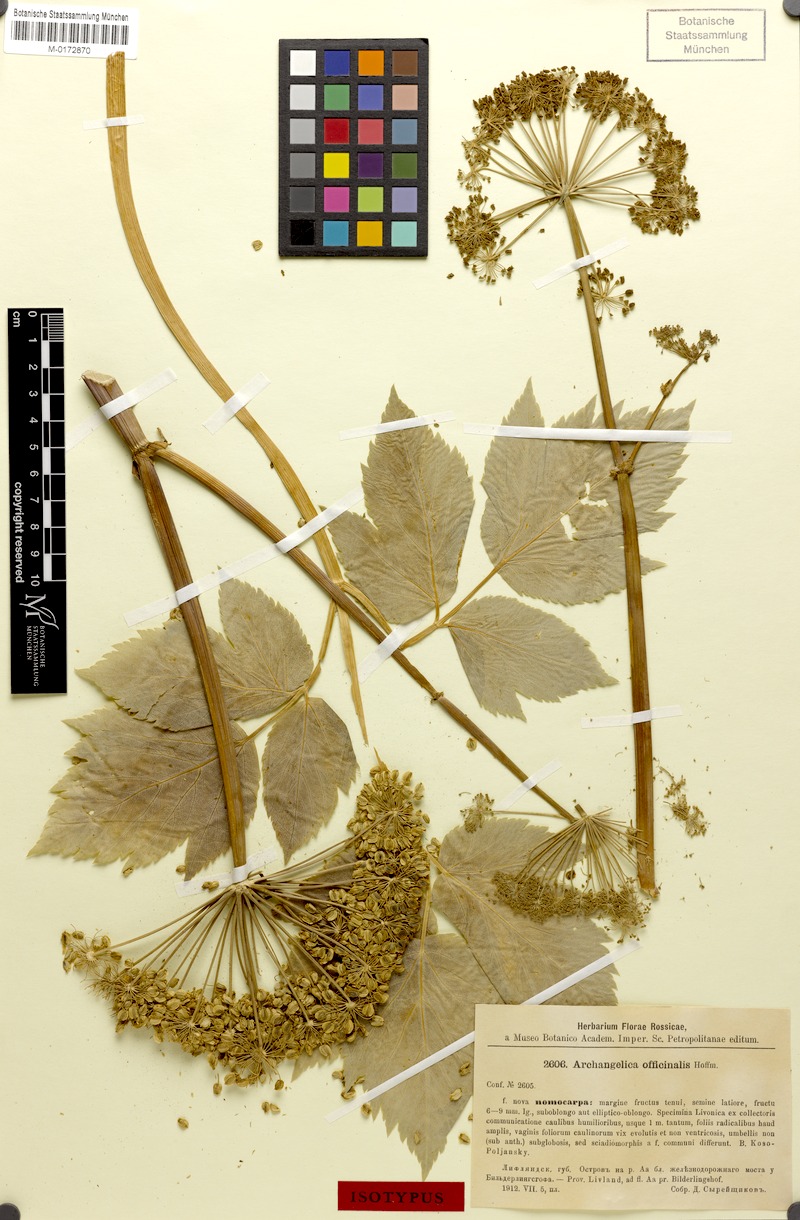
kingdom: Plantae
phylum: Tracheophyta
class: Magnoliopsida
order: Apiales
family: Apiaceae
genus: Angelica
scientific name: Angelica archangelica
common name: Garden angelica
